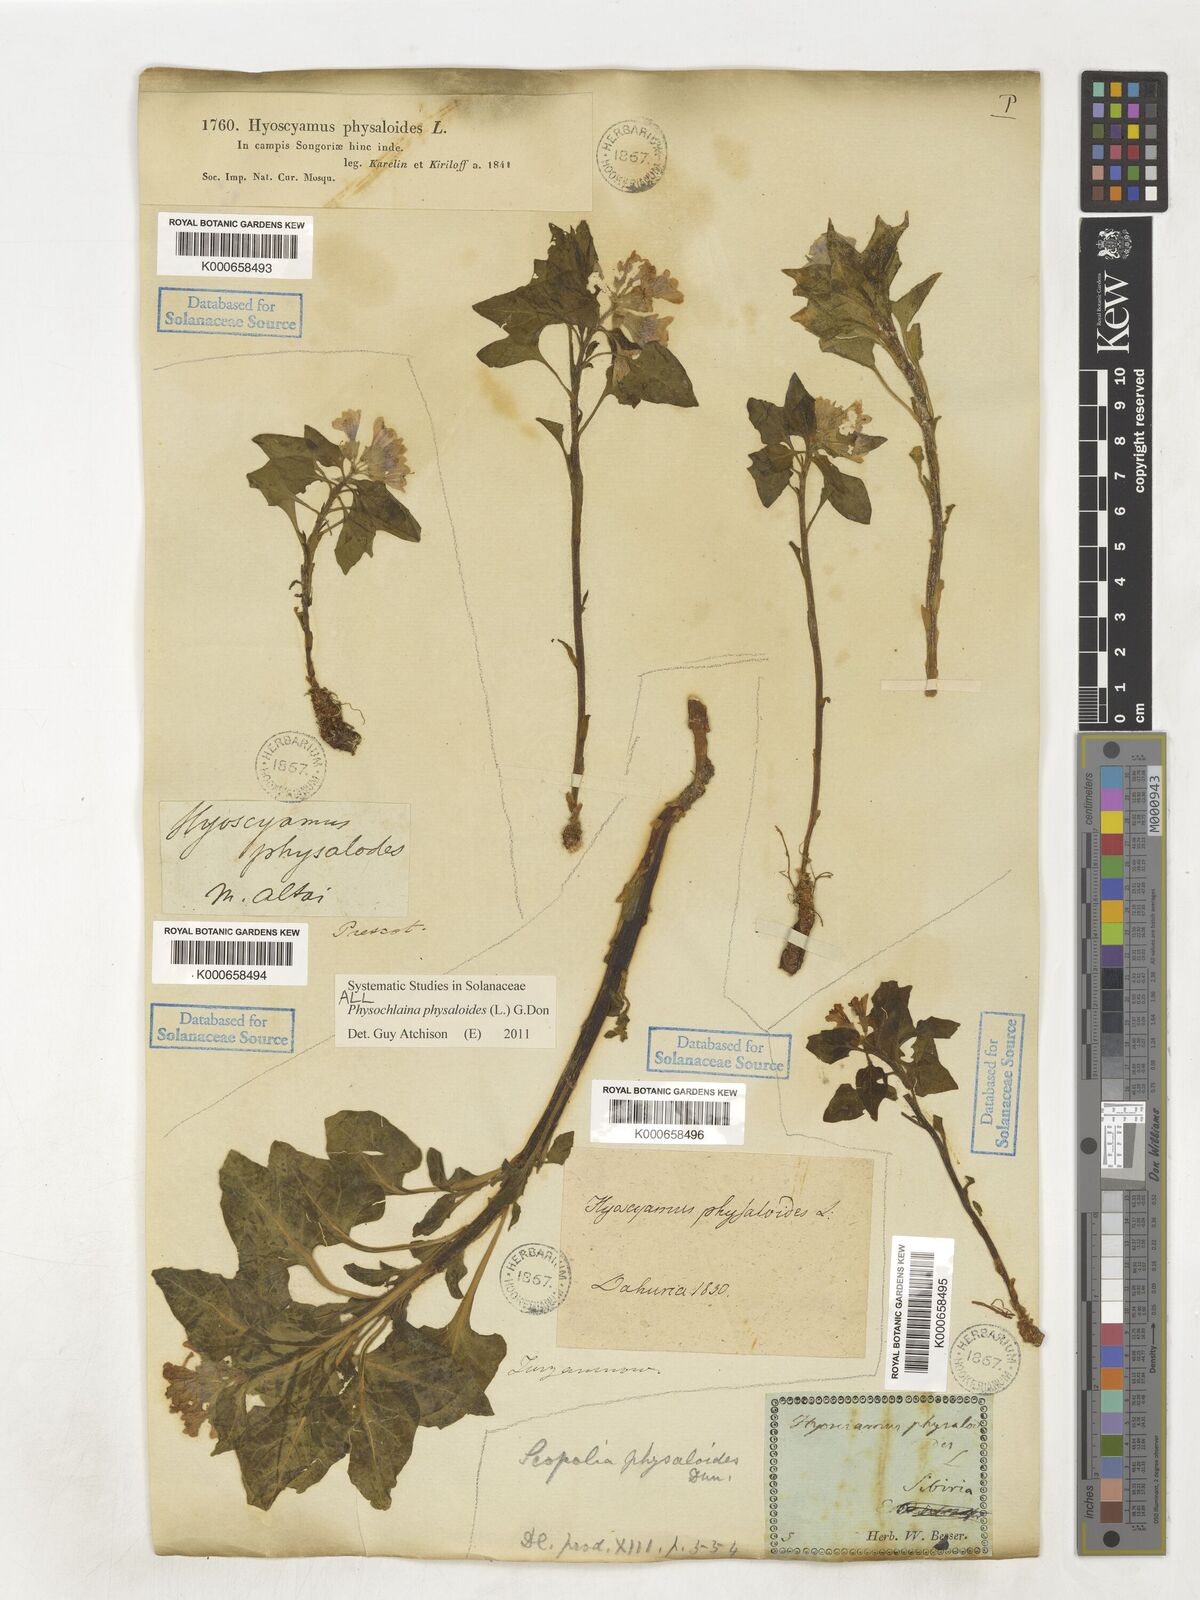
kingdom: Plantae
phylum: Tracheophyta
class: Magnoliopsida
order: Solanales
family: Solanaceae
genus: Physochlaina
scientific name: Physochlaina physaloides
